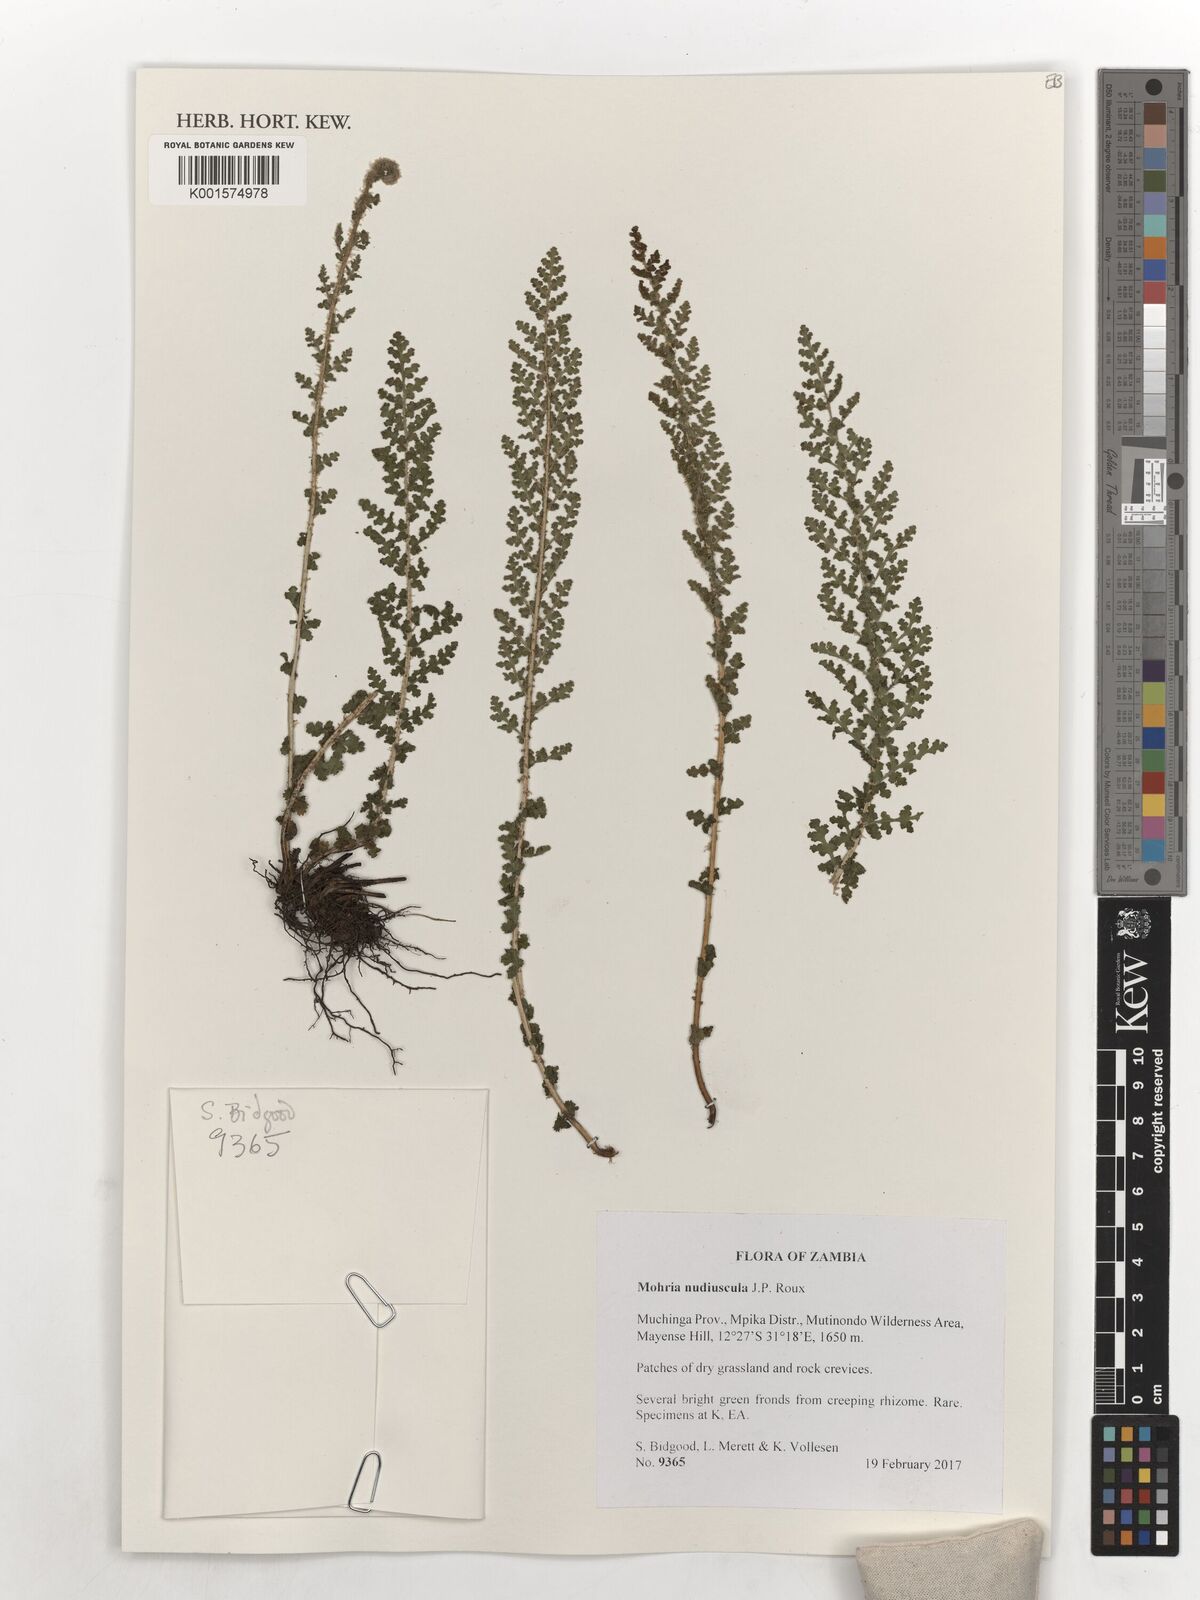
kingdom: Plantae
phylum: Tracheophyta
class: Polypodiopsida
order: Schizaeales
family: Anemiaceae
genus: Anemia
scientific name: Anemia nudiuscula
